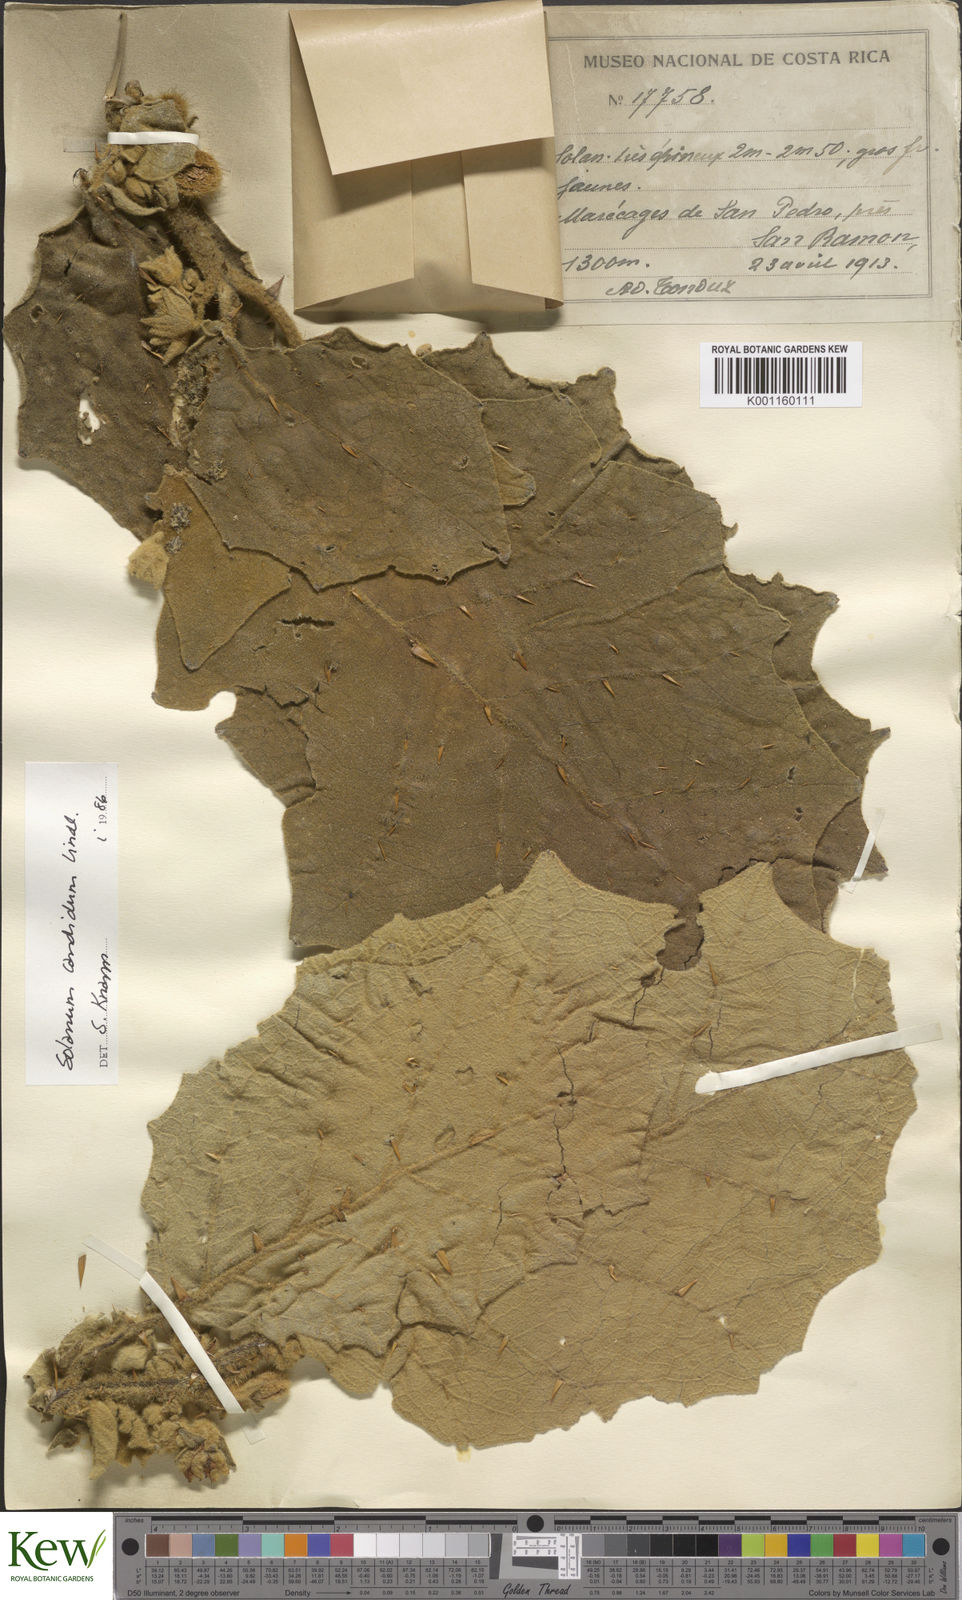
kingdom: Plantae
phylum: Tracheophyta
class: Magnoliopsida
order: Solanales
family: Solanaceae
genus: Solanum
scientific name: Solanum candidum
